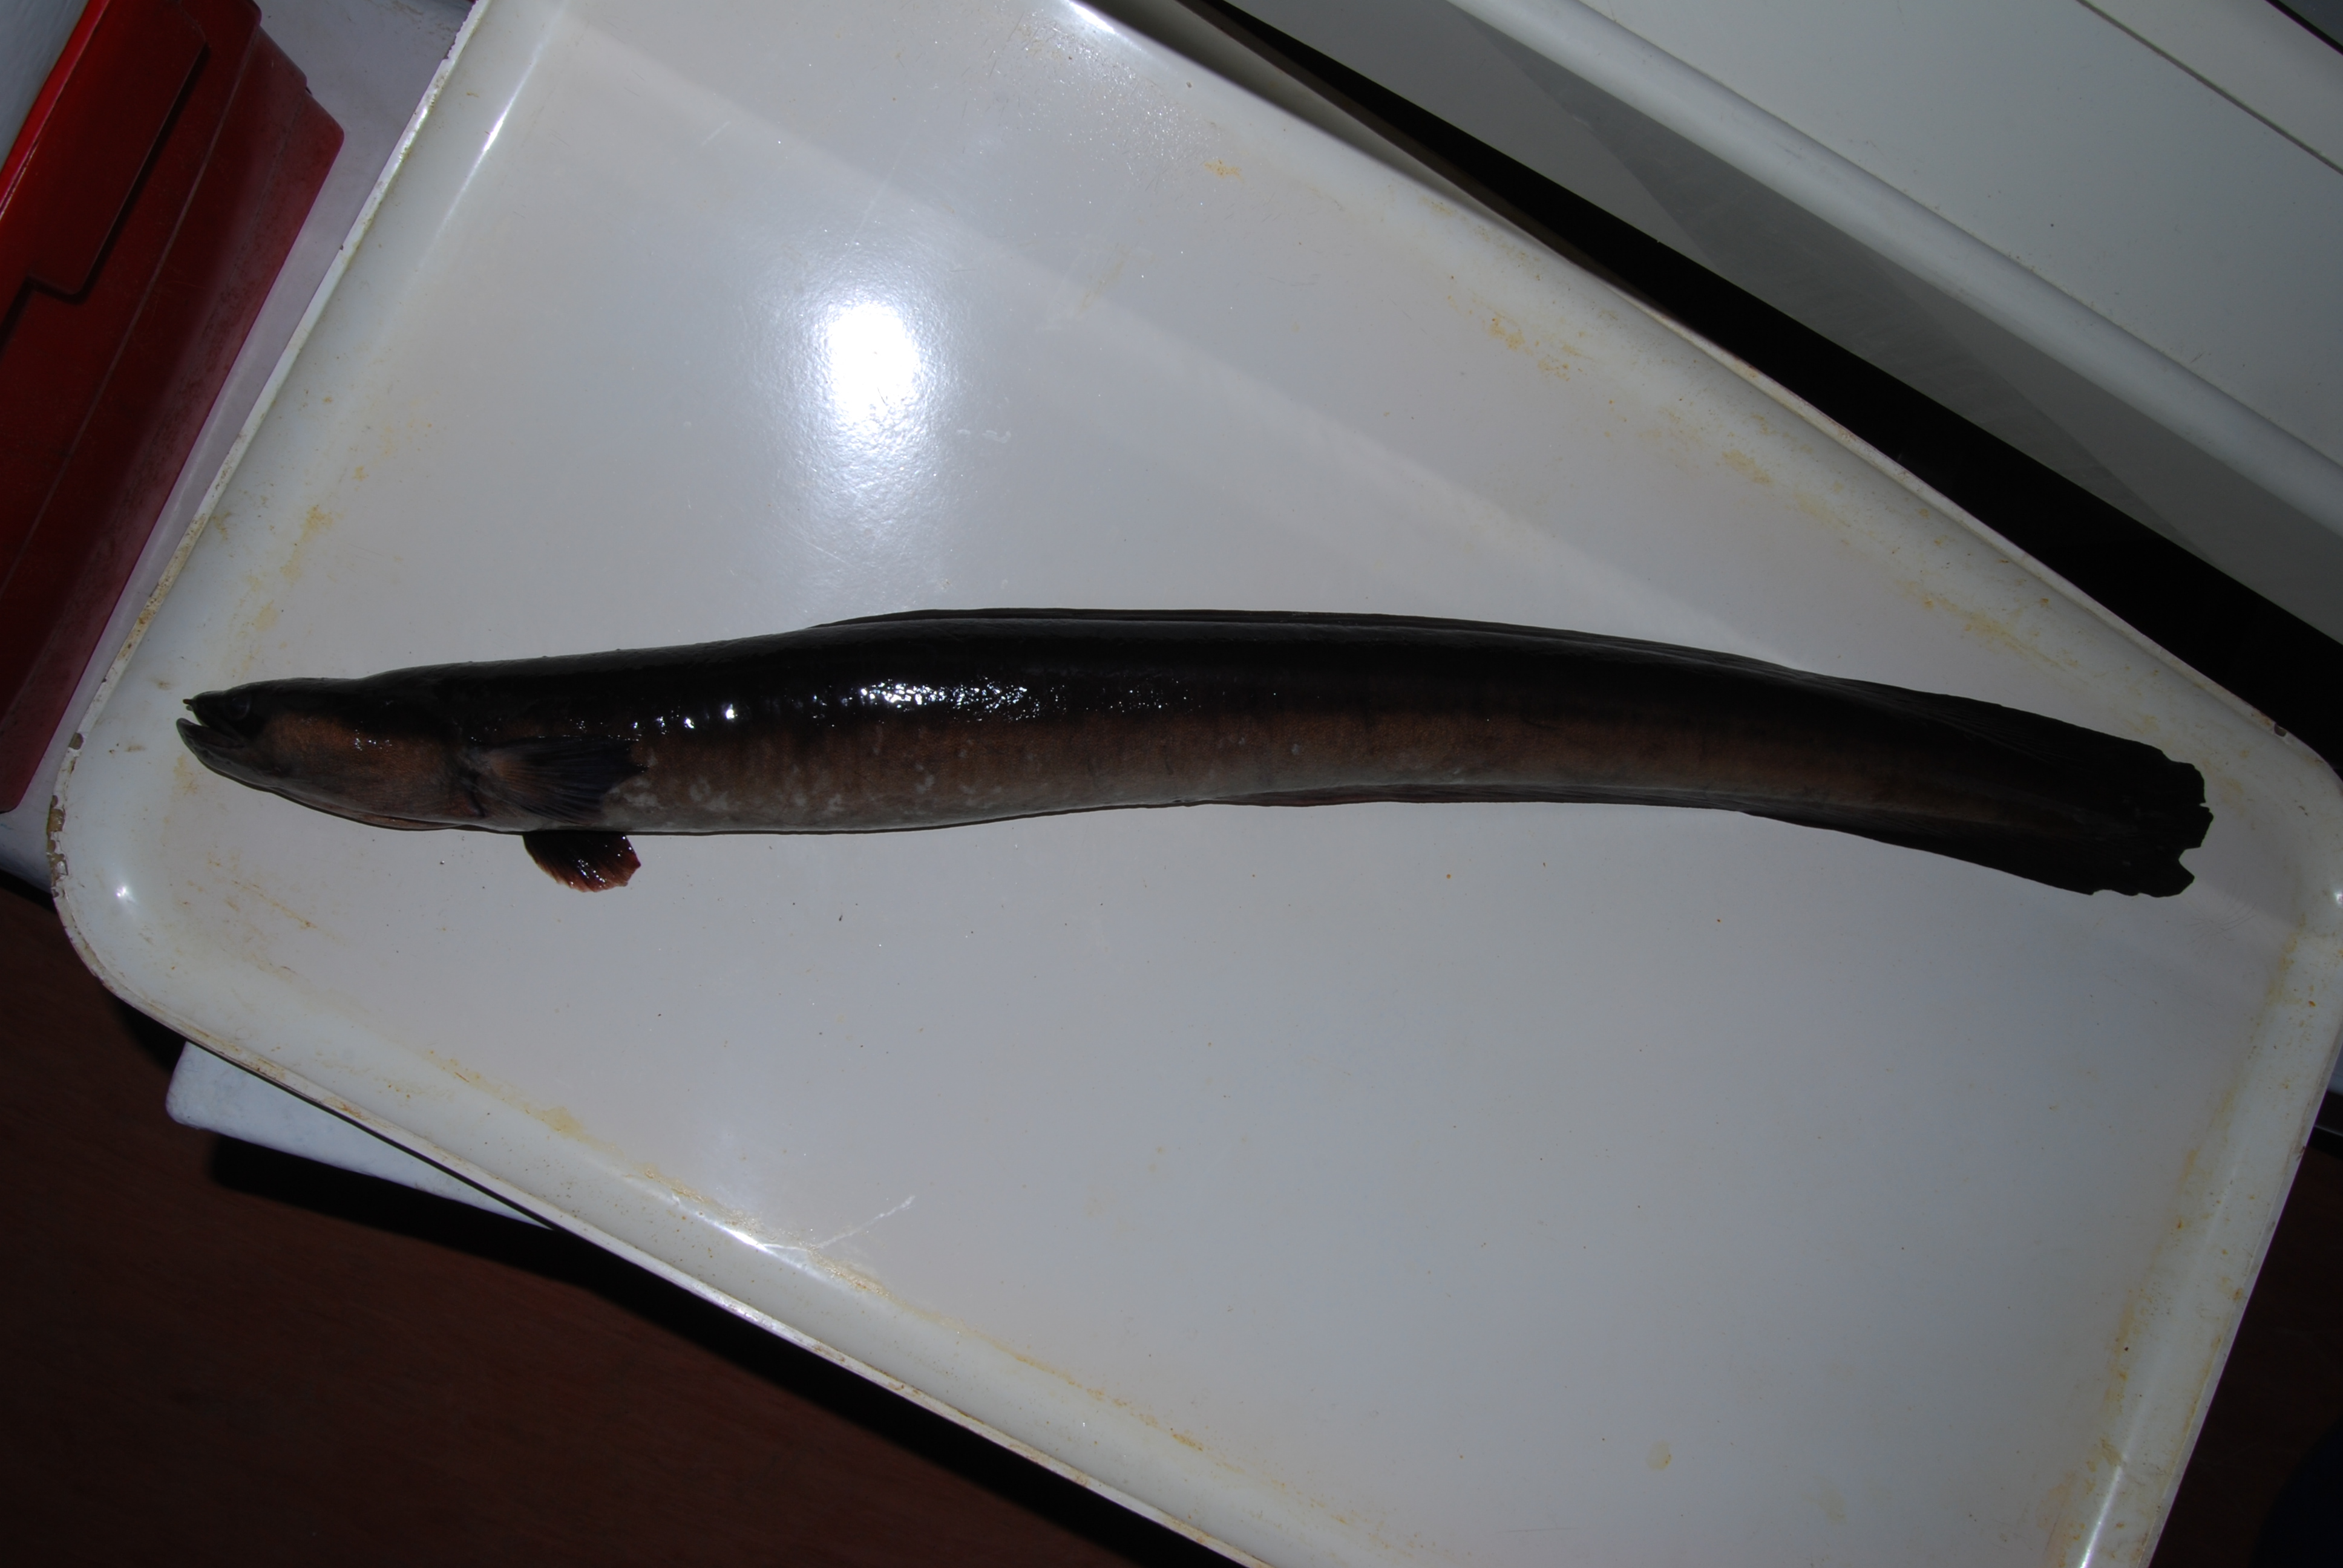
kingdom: Animalia
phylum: Chordata
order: Anguilliformes
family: Anguillidae
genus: Anguilla
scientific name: Anguilla mossambica
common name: African longfin eel
